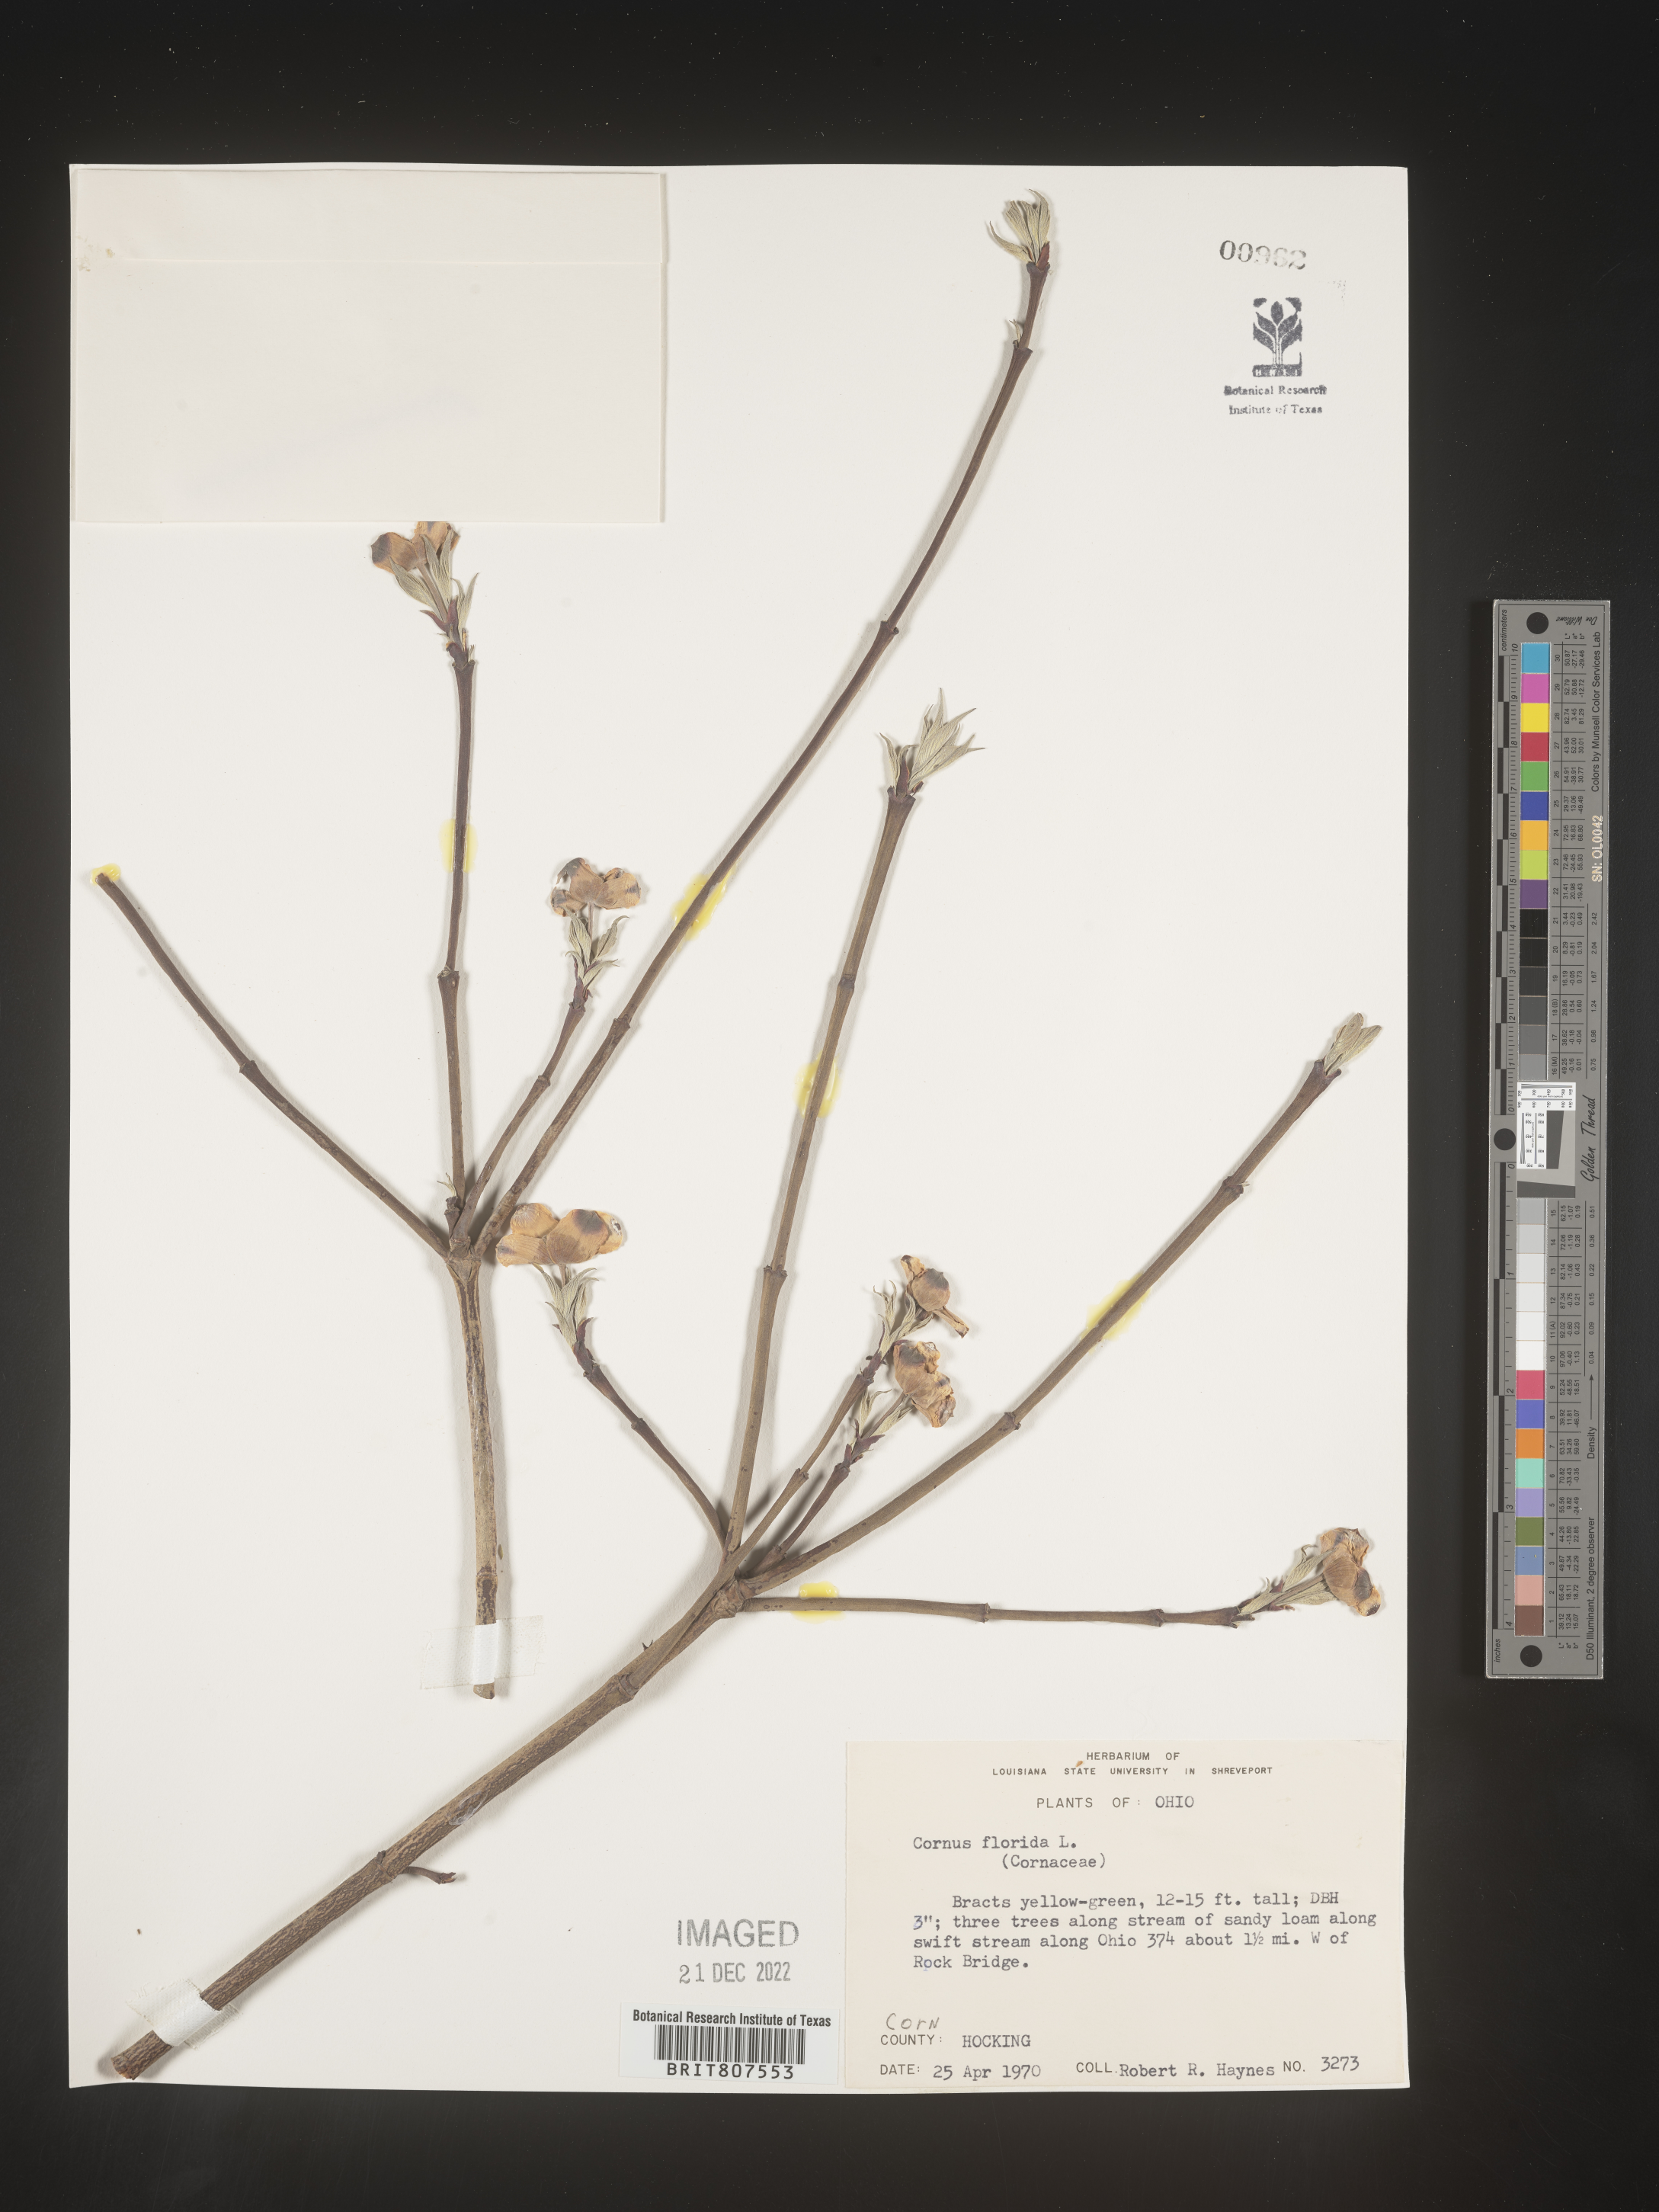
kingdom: Plantae
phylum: Tracheophyta
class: Magnoliopsida
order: Cornales
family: Cornaceae
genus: Cornus
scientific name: Cornus florida
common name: Flowering dogwood
